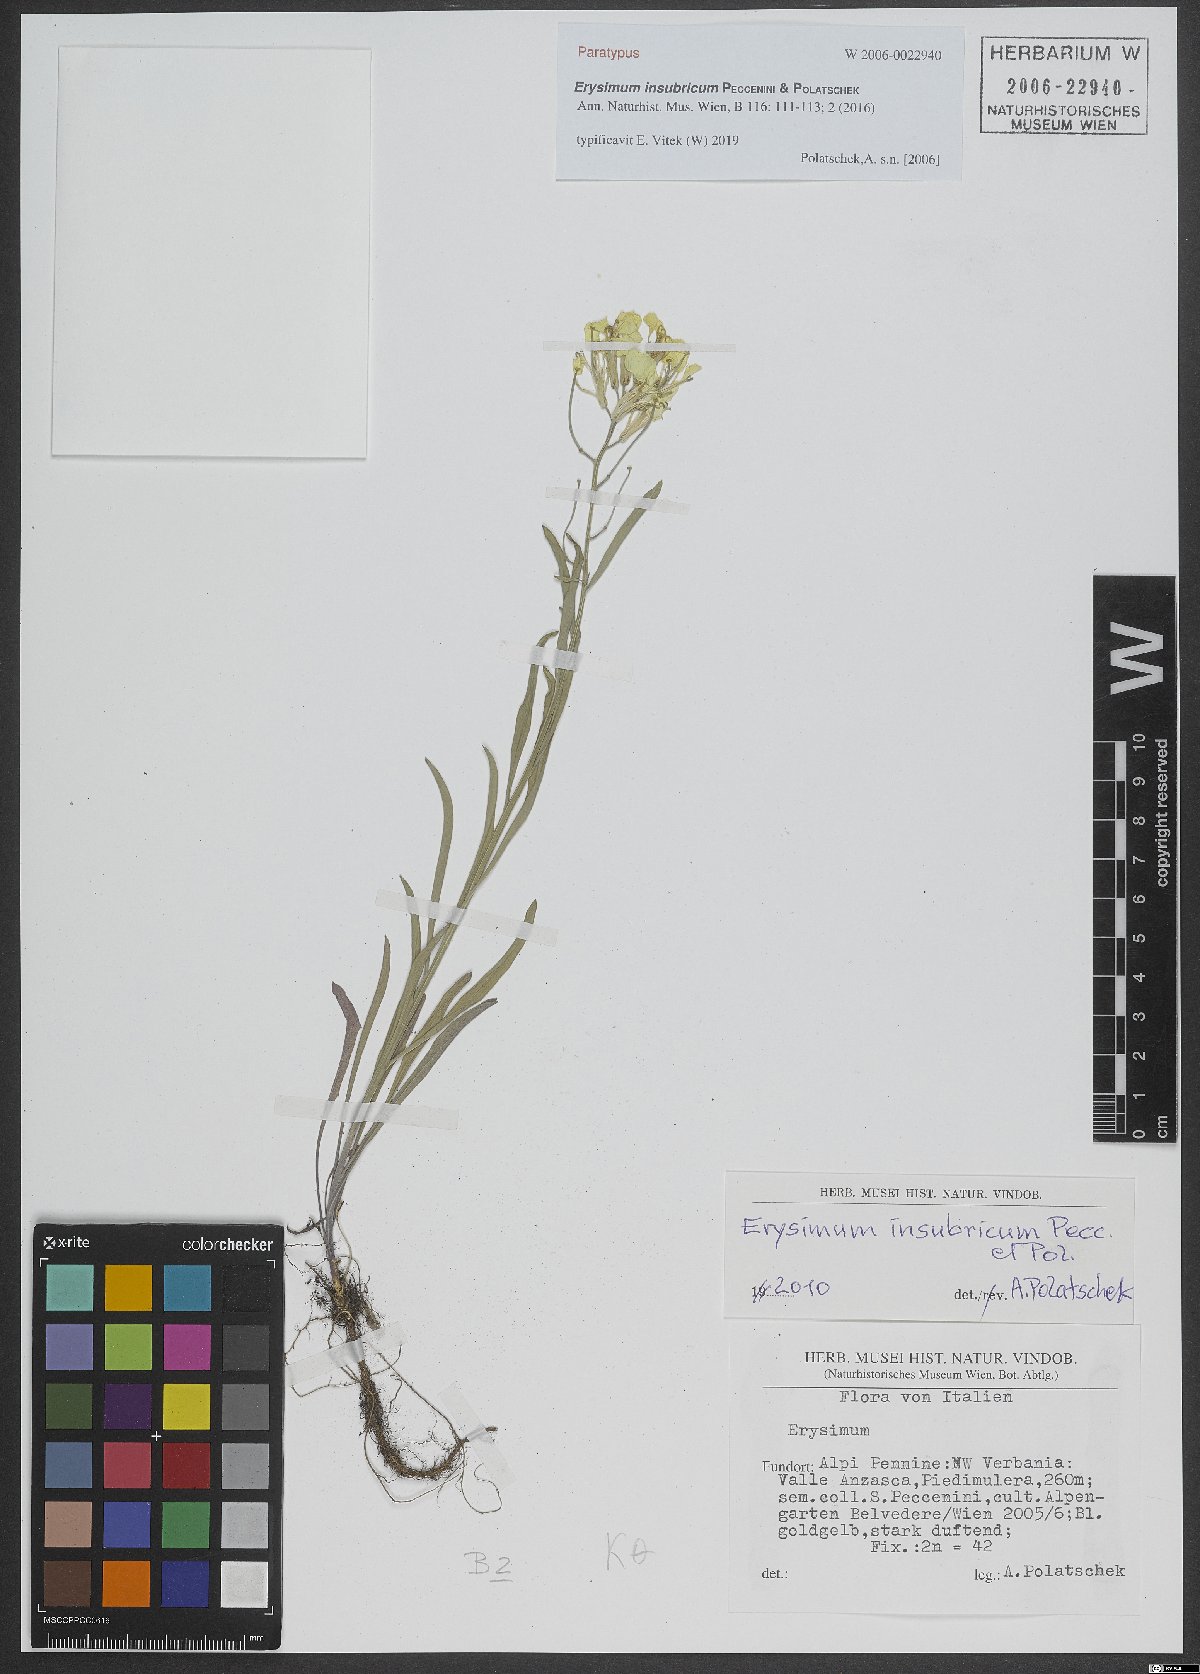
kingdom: Plantae
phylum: Tracheophyta
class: Magnoliopsida
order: Brassicales
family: Brassicaceae
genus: Erysimum
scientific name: Erysimum insubricum
